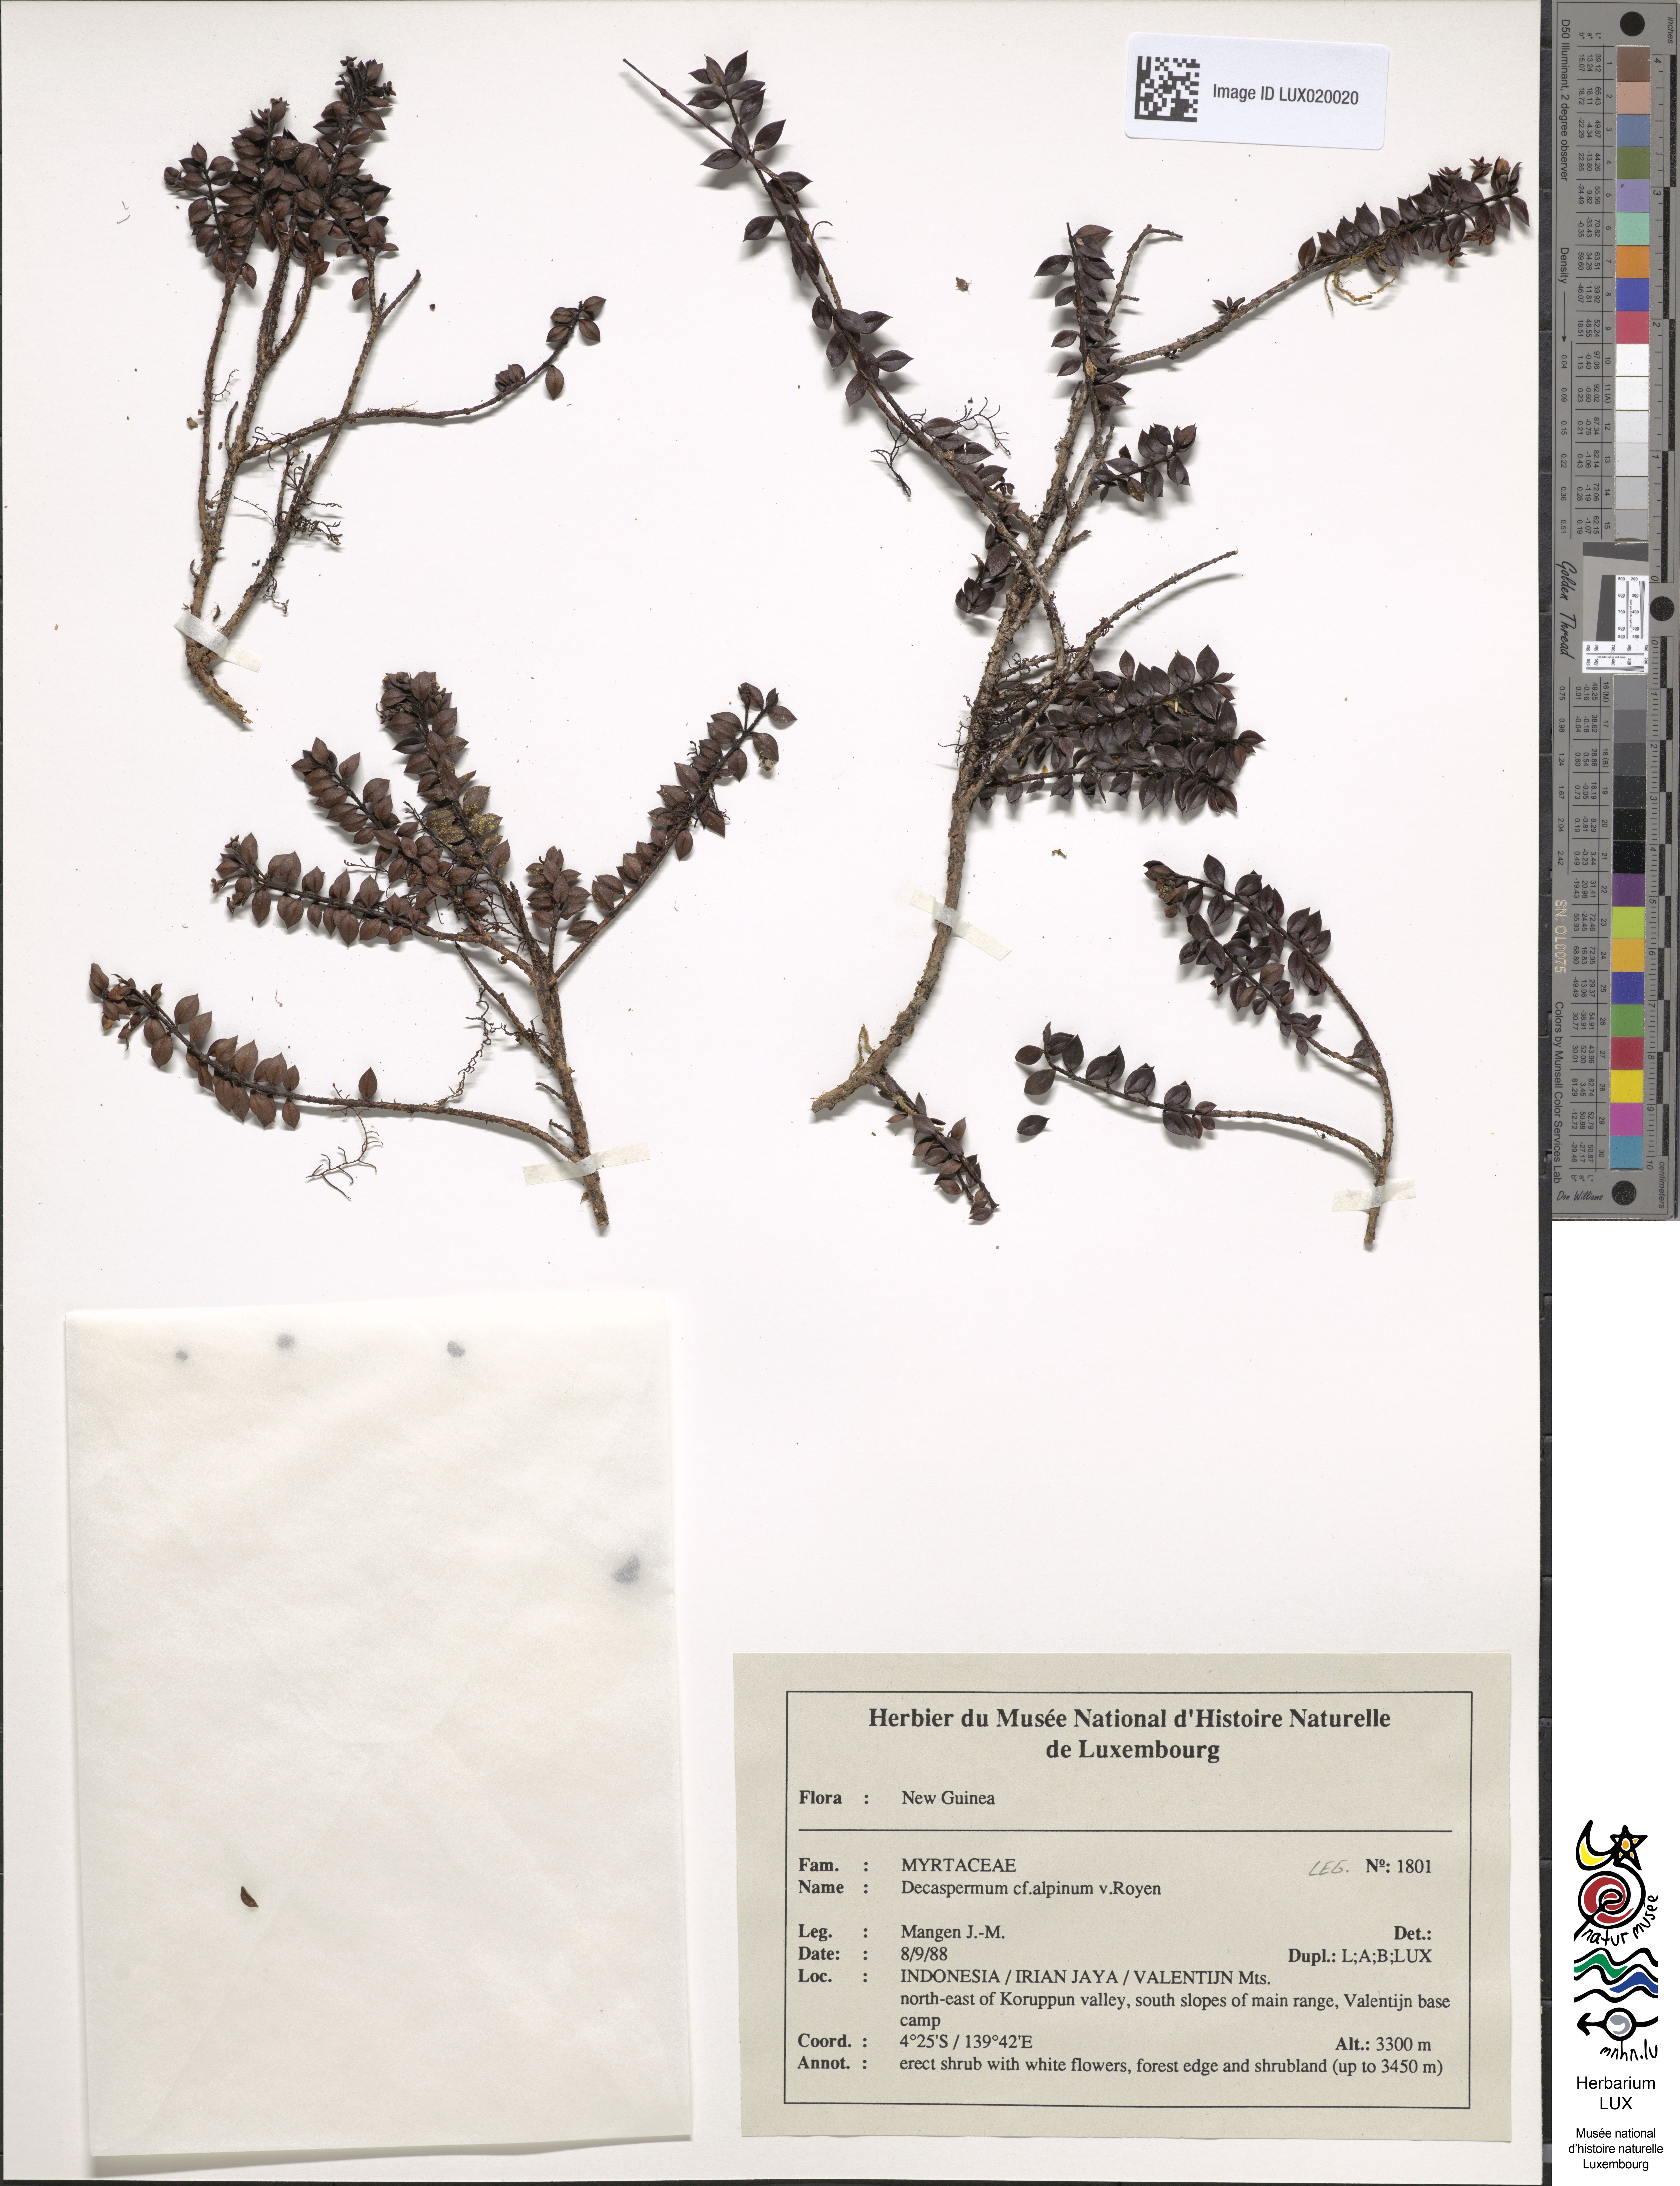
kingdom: Plantae
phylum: Tracheophyta
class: Magnoliopsida
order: Myrtales
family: Myrtaceae
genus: Decaspermum
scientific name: Decaspermum alpinum
